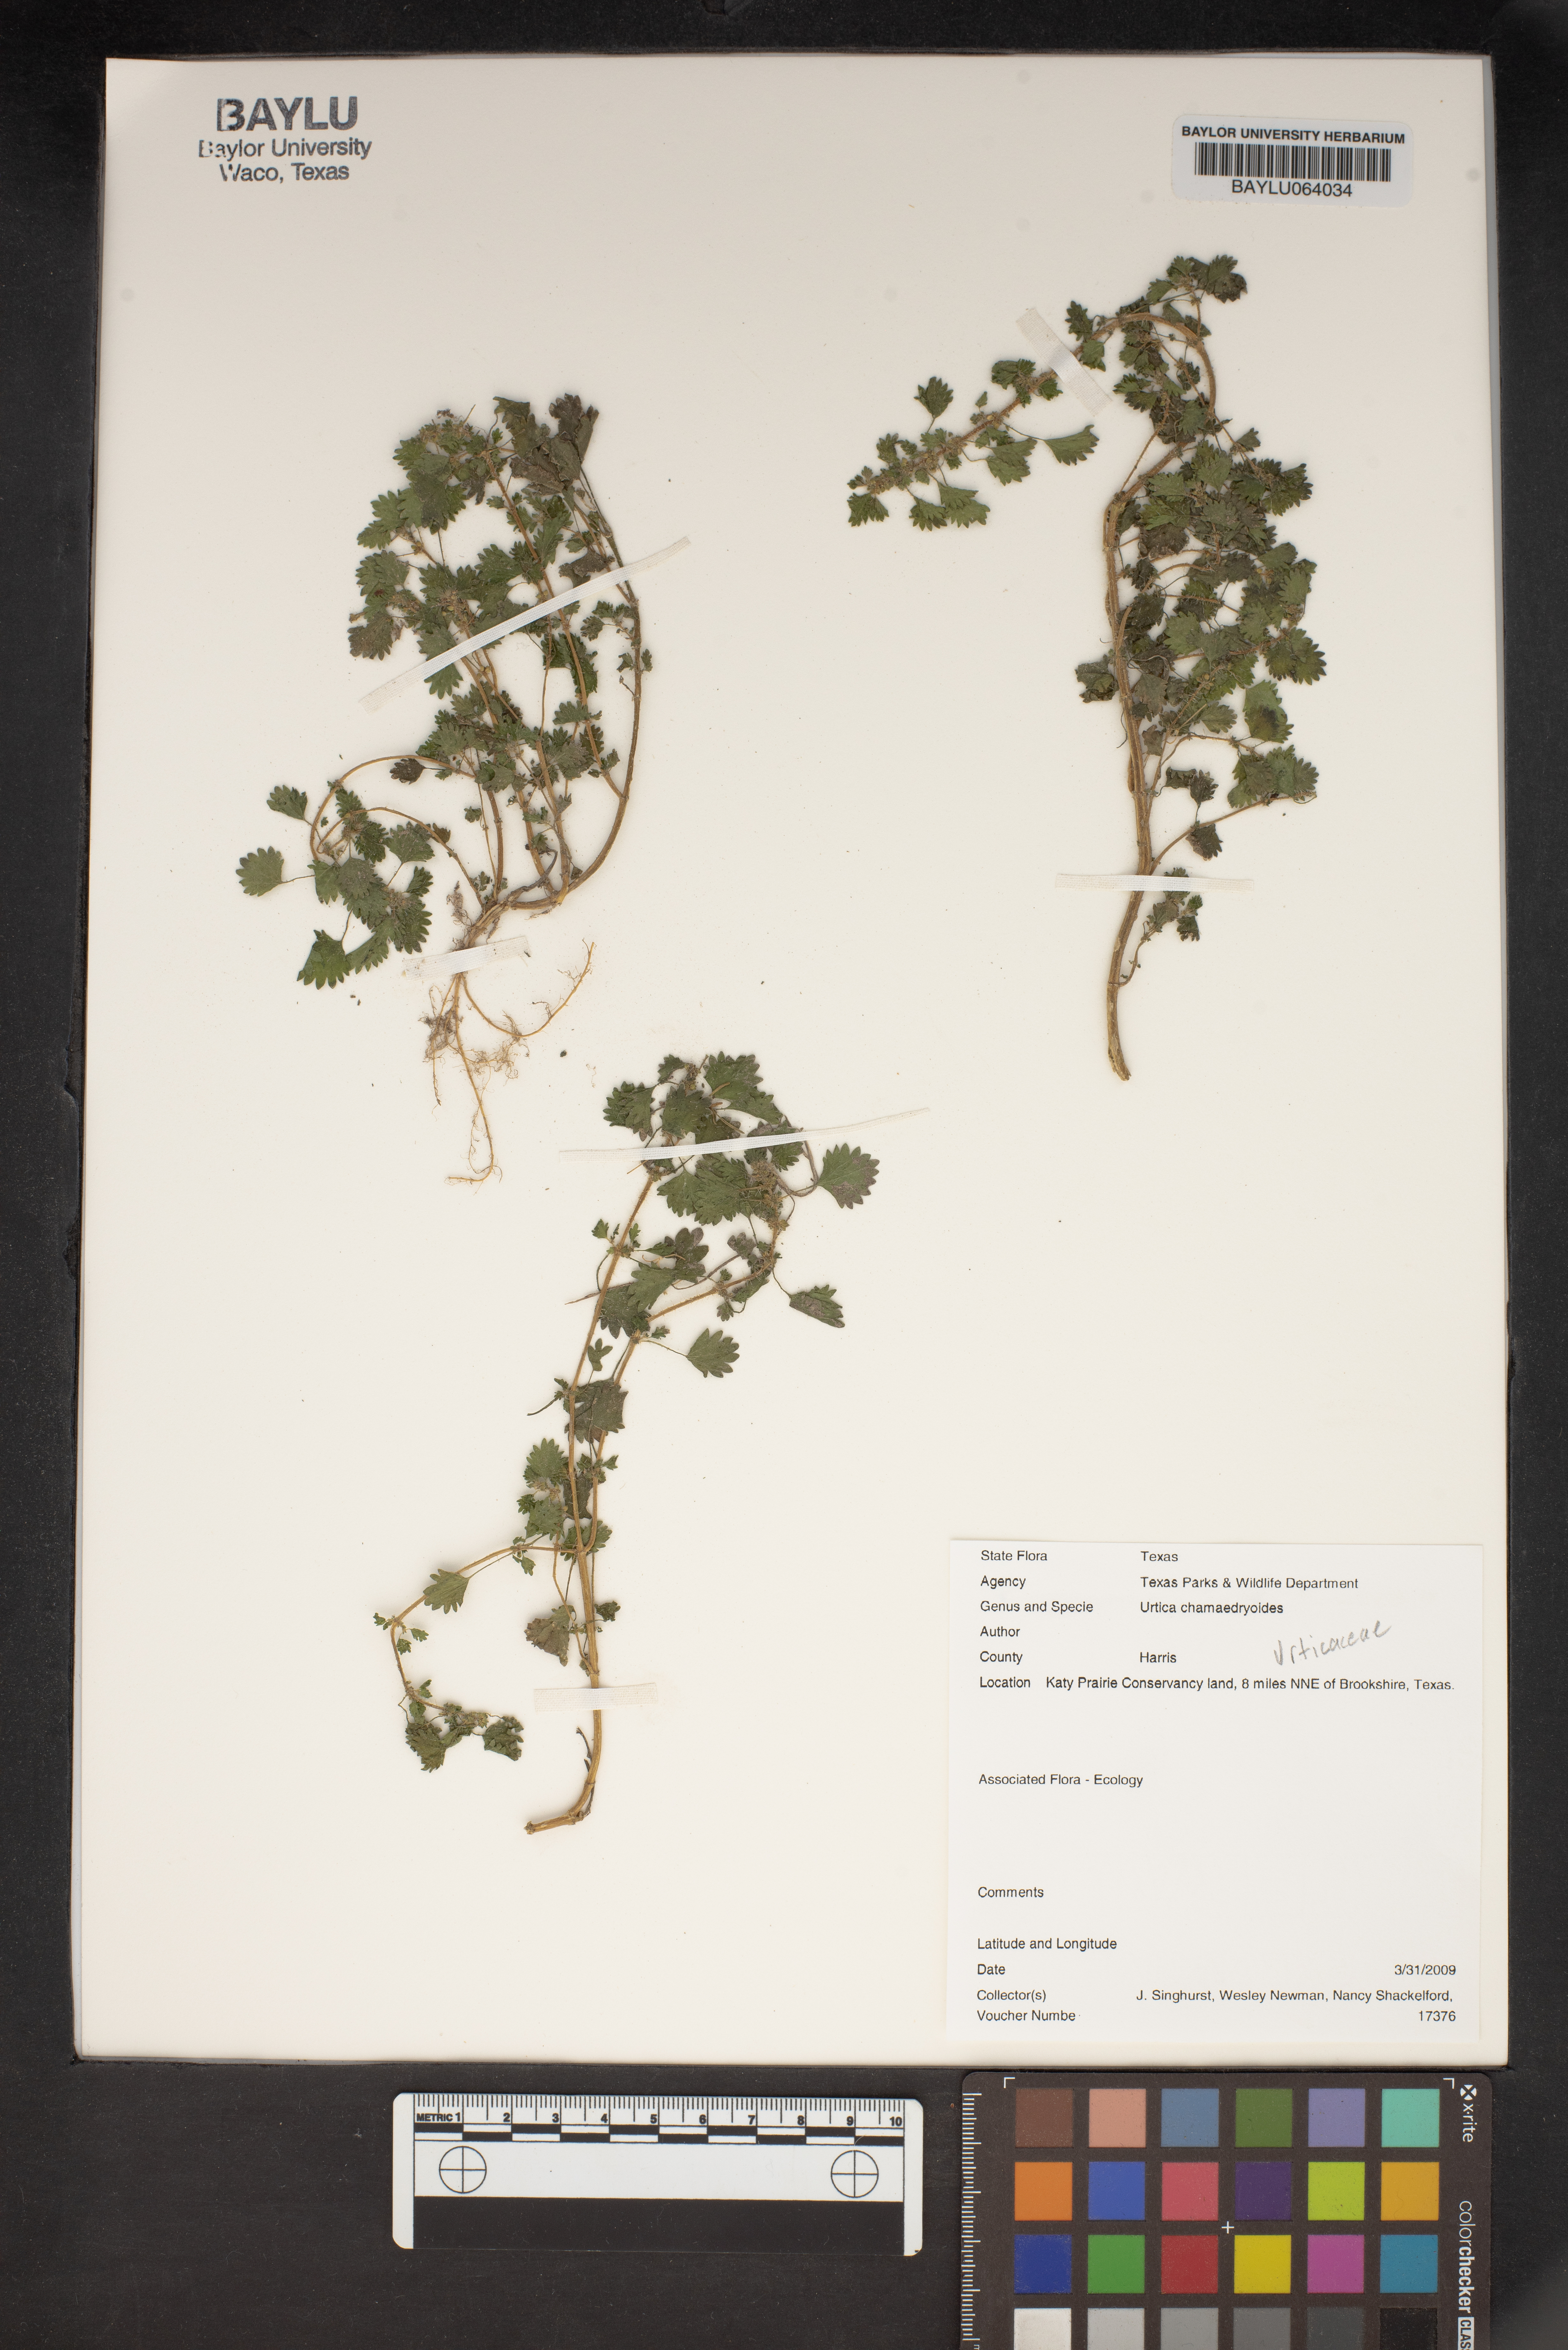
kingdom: Plantae
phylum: Tracheophyta
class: Magnoliopsida
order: Rosales
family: Urticaceae
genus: Urtica
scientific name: Urtica chamaedryoides
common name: Heart-leaf nettle
